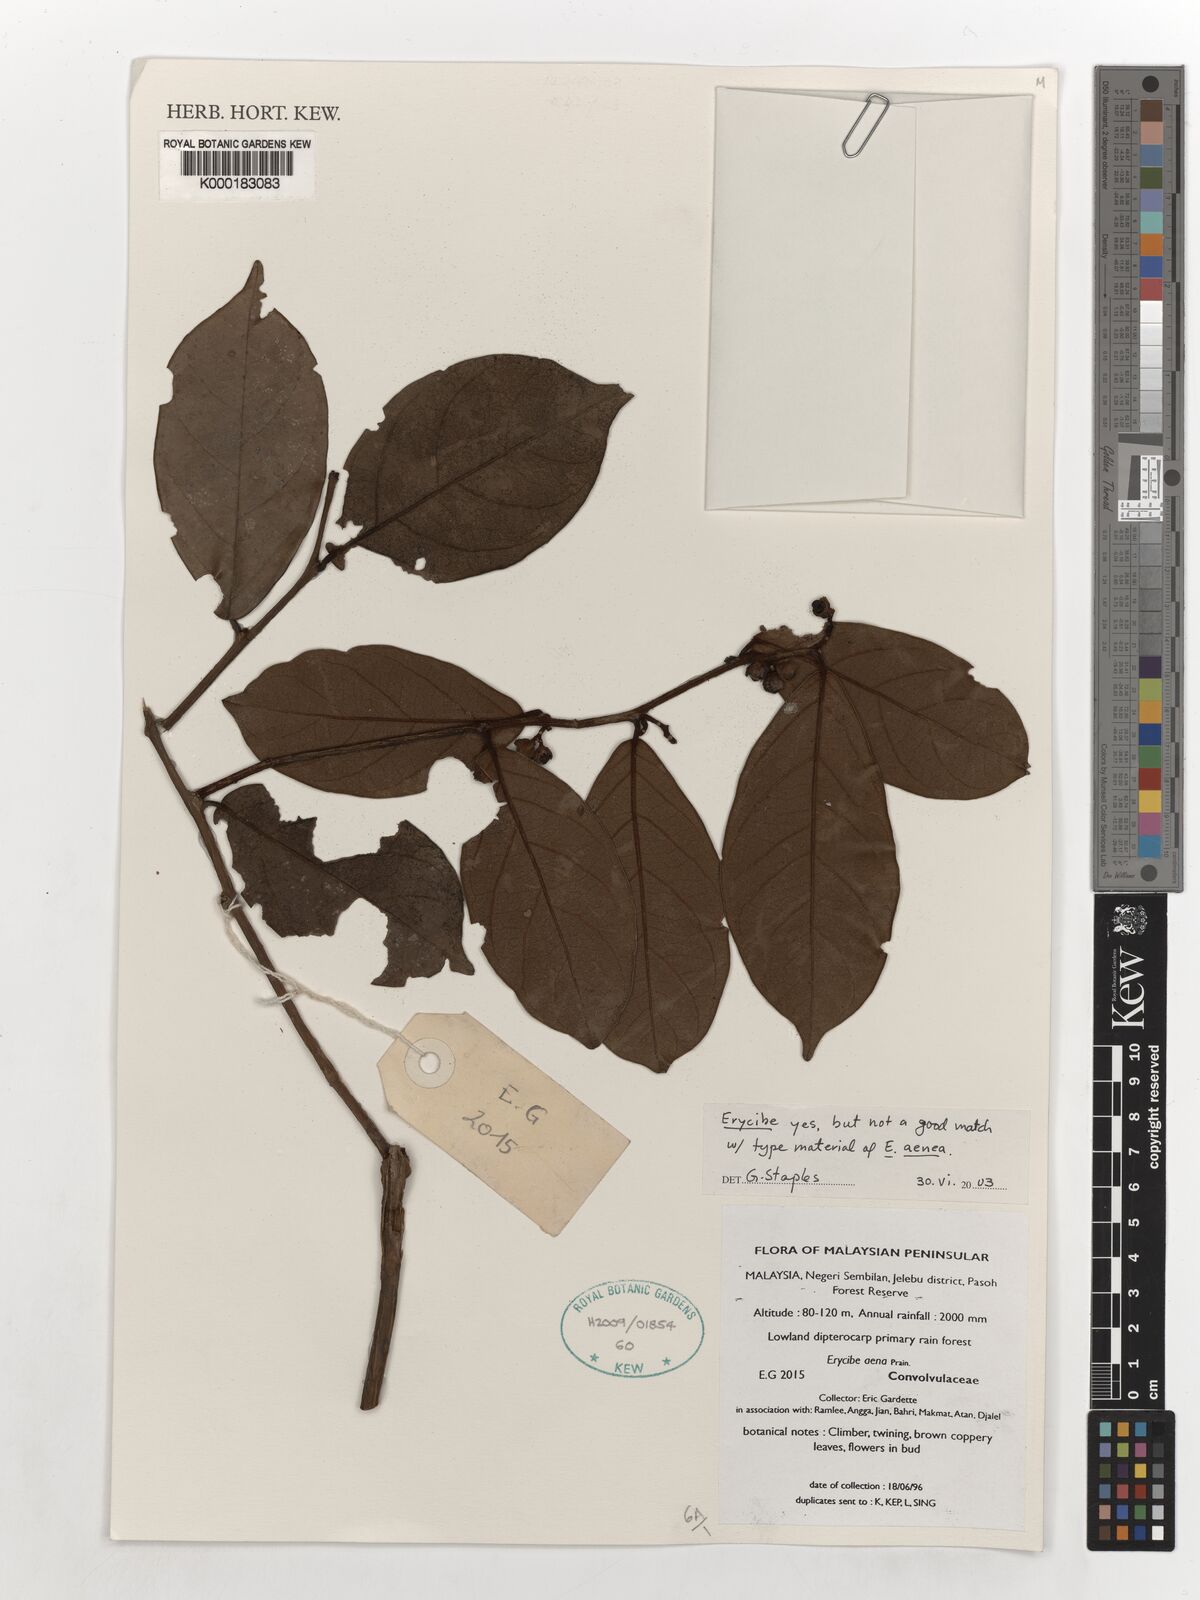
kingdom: Plantae
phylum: Tracheophyta
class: Magnoliopsida
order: Solanales
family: Convolvulaceae
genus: Erycibe
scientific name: Erycibe
